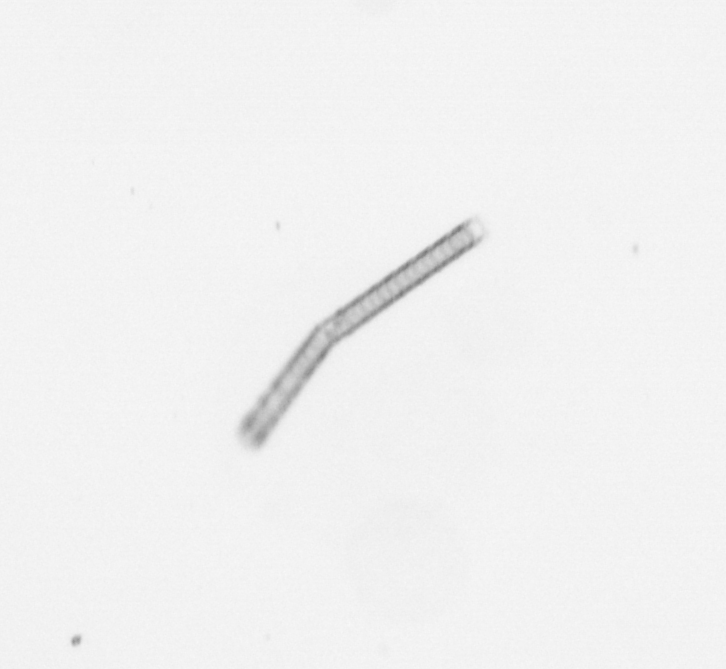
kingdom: Chromista
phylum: Ochrophyta
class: Bacillariophyceae
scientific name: Bacillariophyceae
